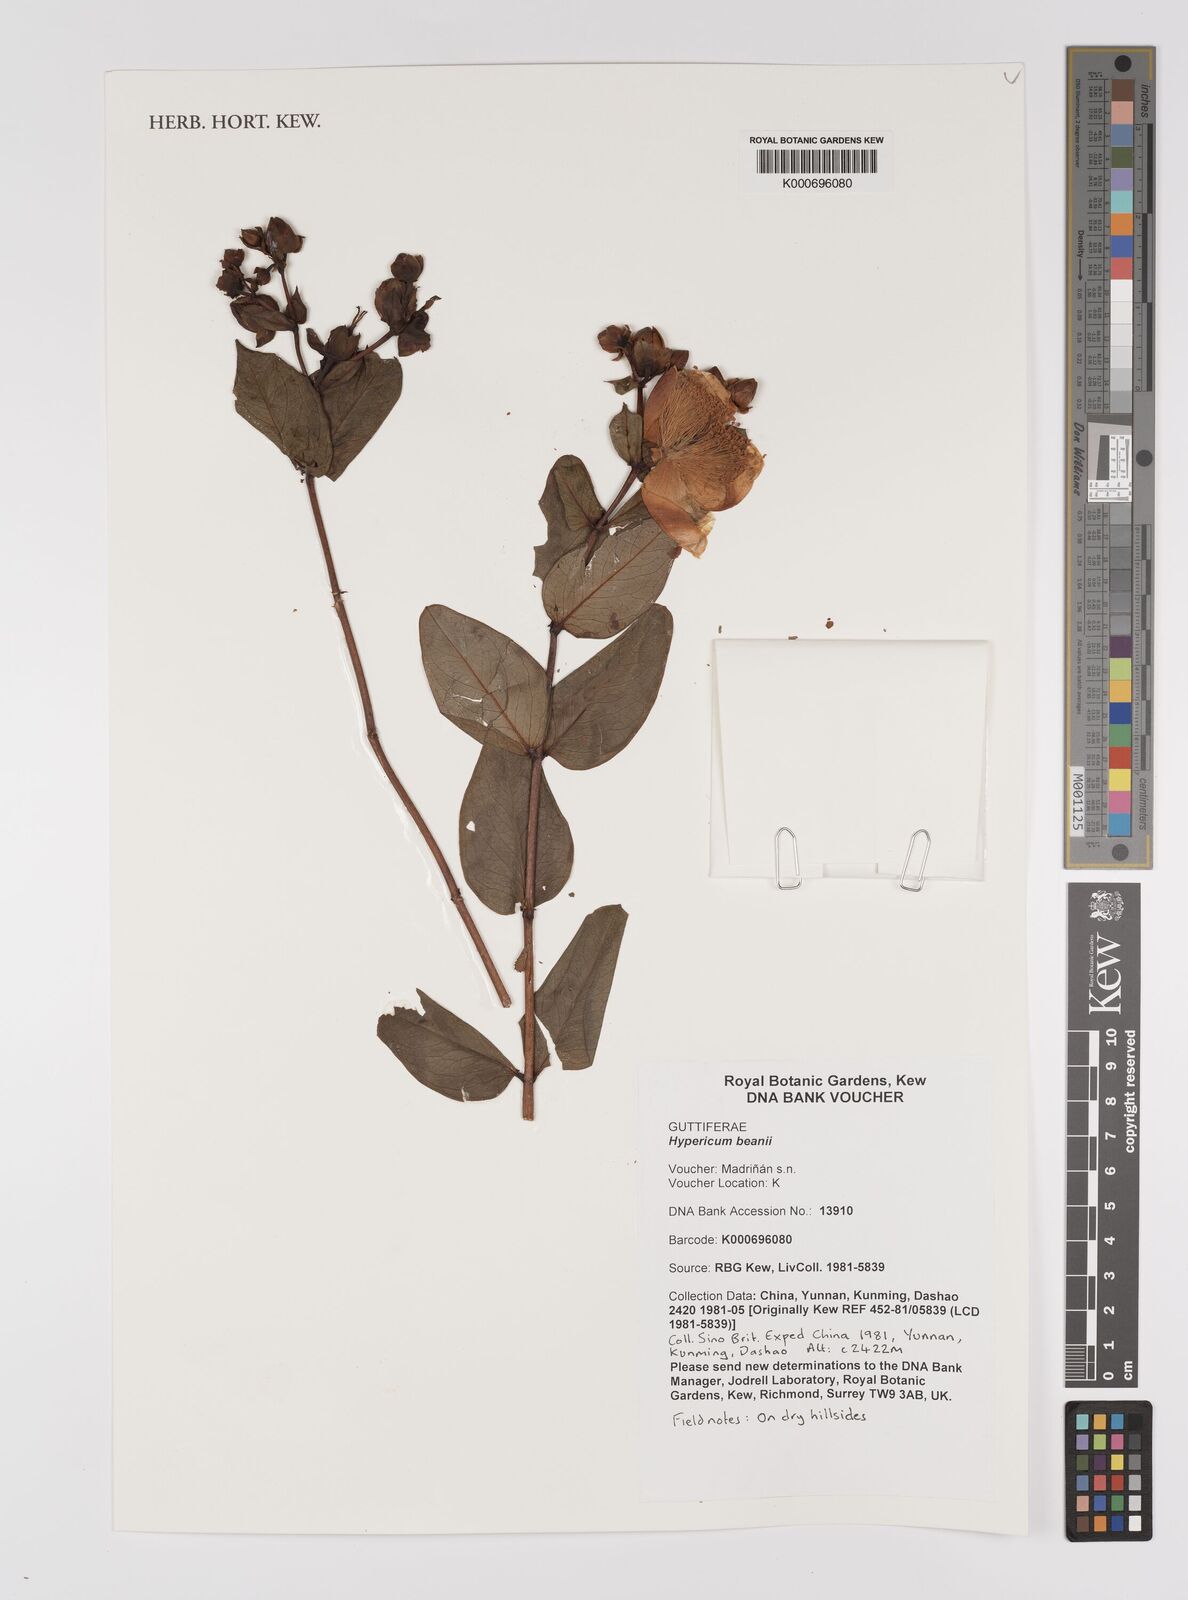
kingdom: Plantae
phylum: Tracheophyta
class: Magnoliopsida
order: Malpighiales
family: Hypericaceae
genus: Hypericum
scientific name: Hypericum beanii
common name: St. johnswort
